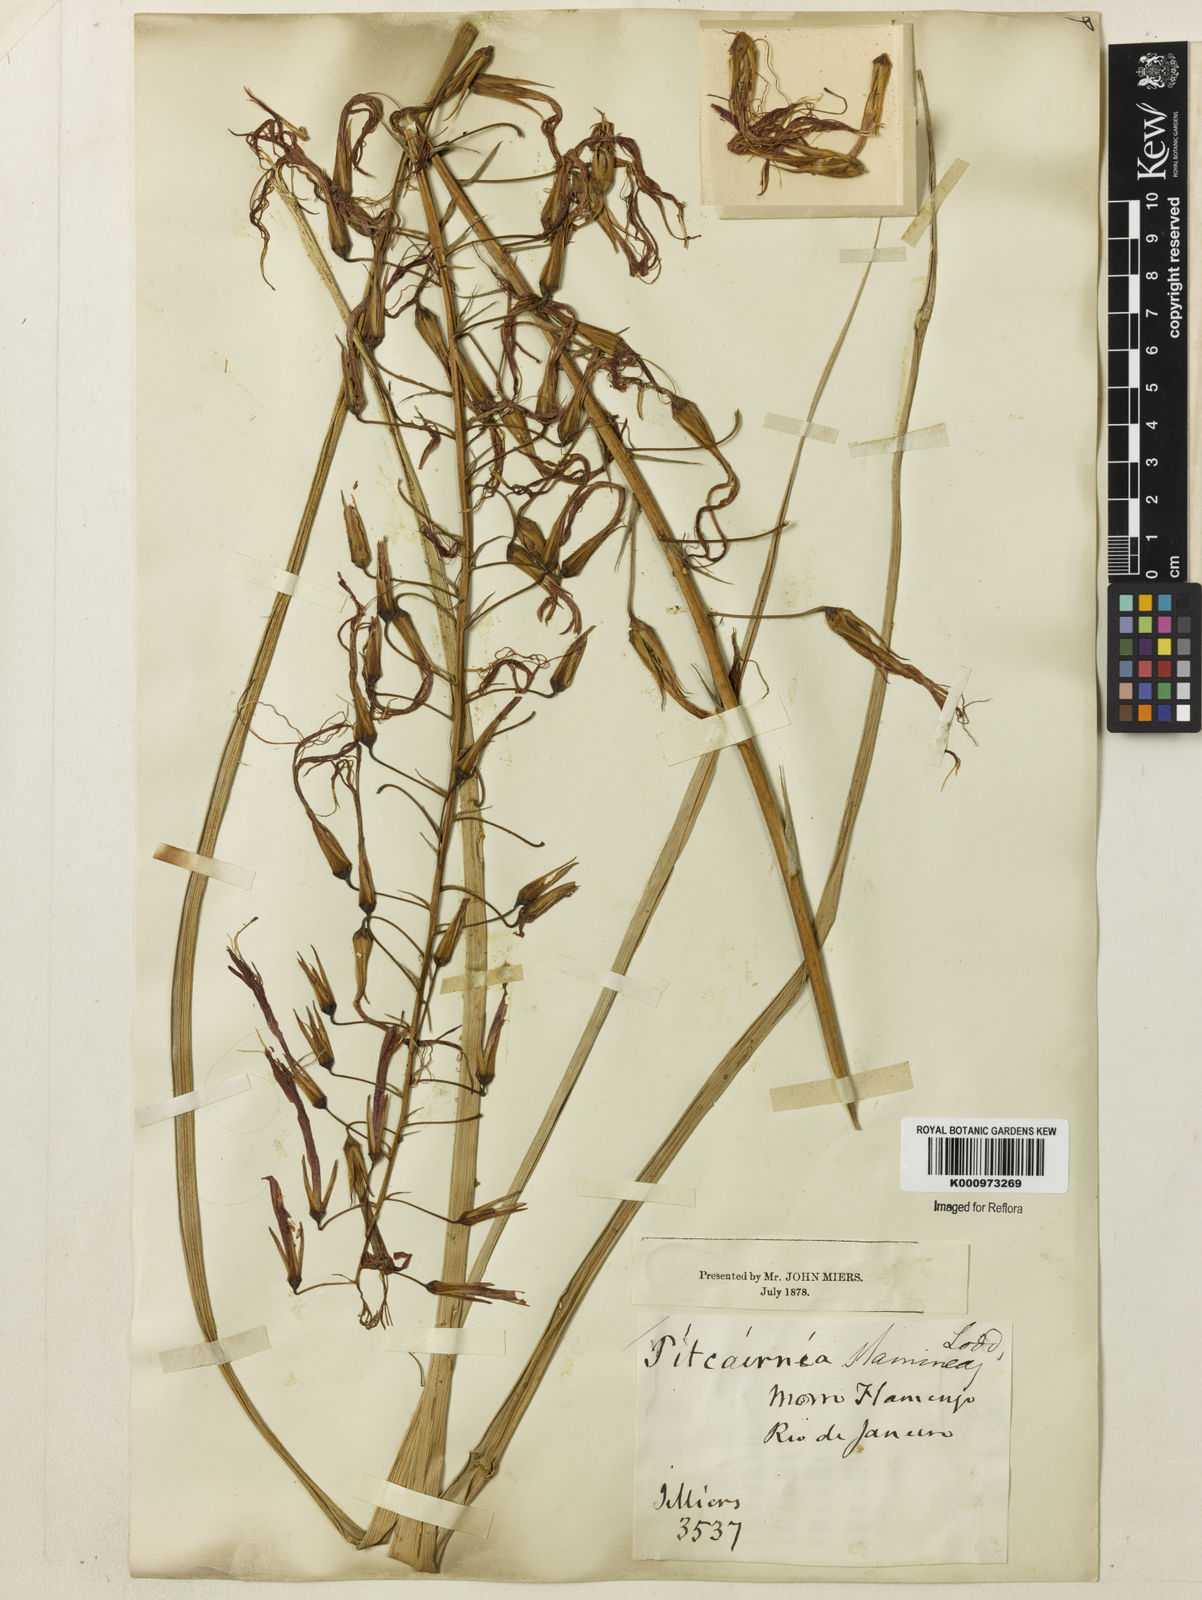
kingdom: Plantae
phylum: Tracheophyta
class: Liliopsida
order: Poales
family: Bromeliaceae
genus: Pitcairnia
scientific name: Pitcairnia staminea
